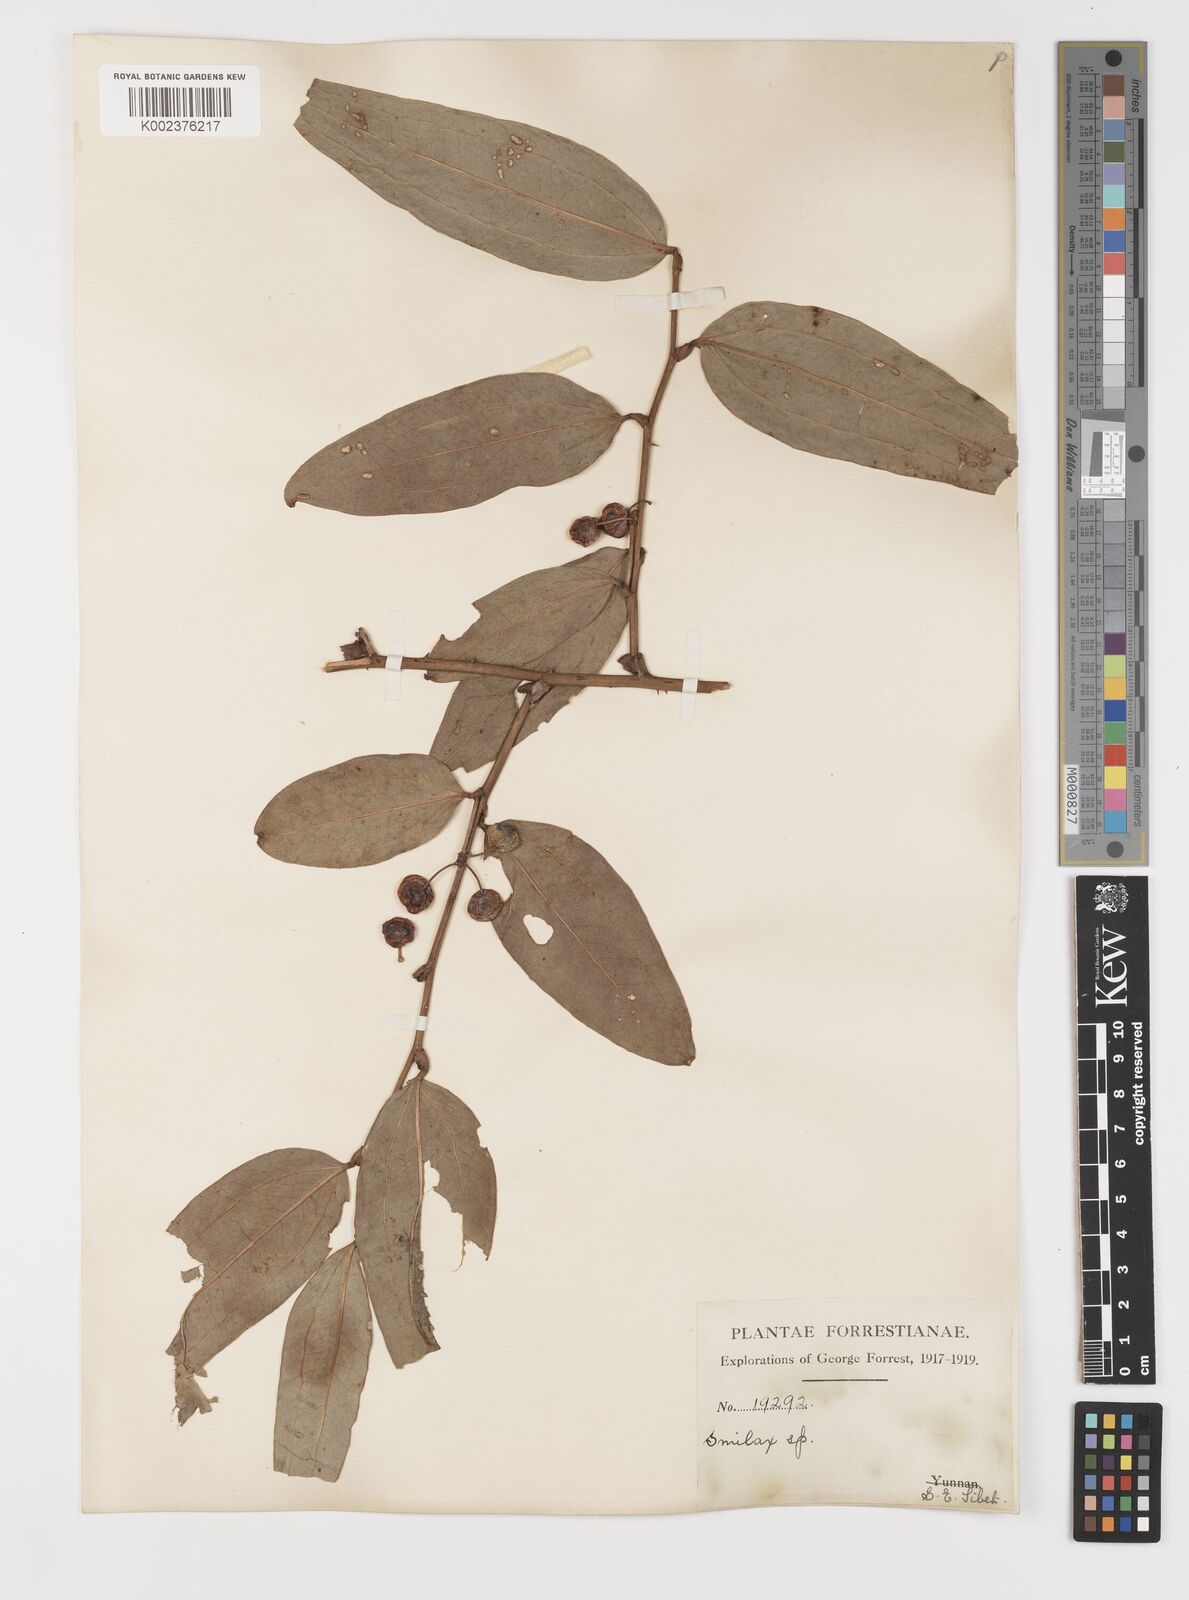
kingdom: Plantae
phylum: Tracheophyta
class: Liliopsida
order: Liliales
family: Smilacaceae
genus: Smilax
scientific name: Smilax ferox
